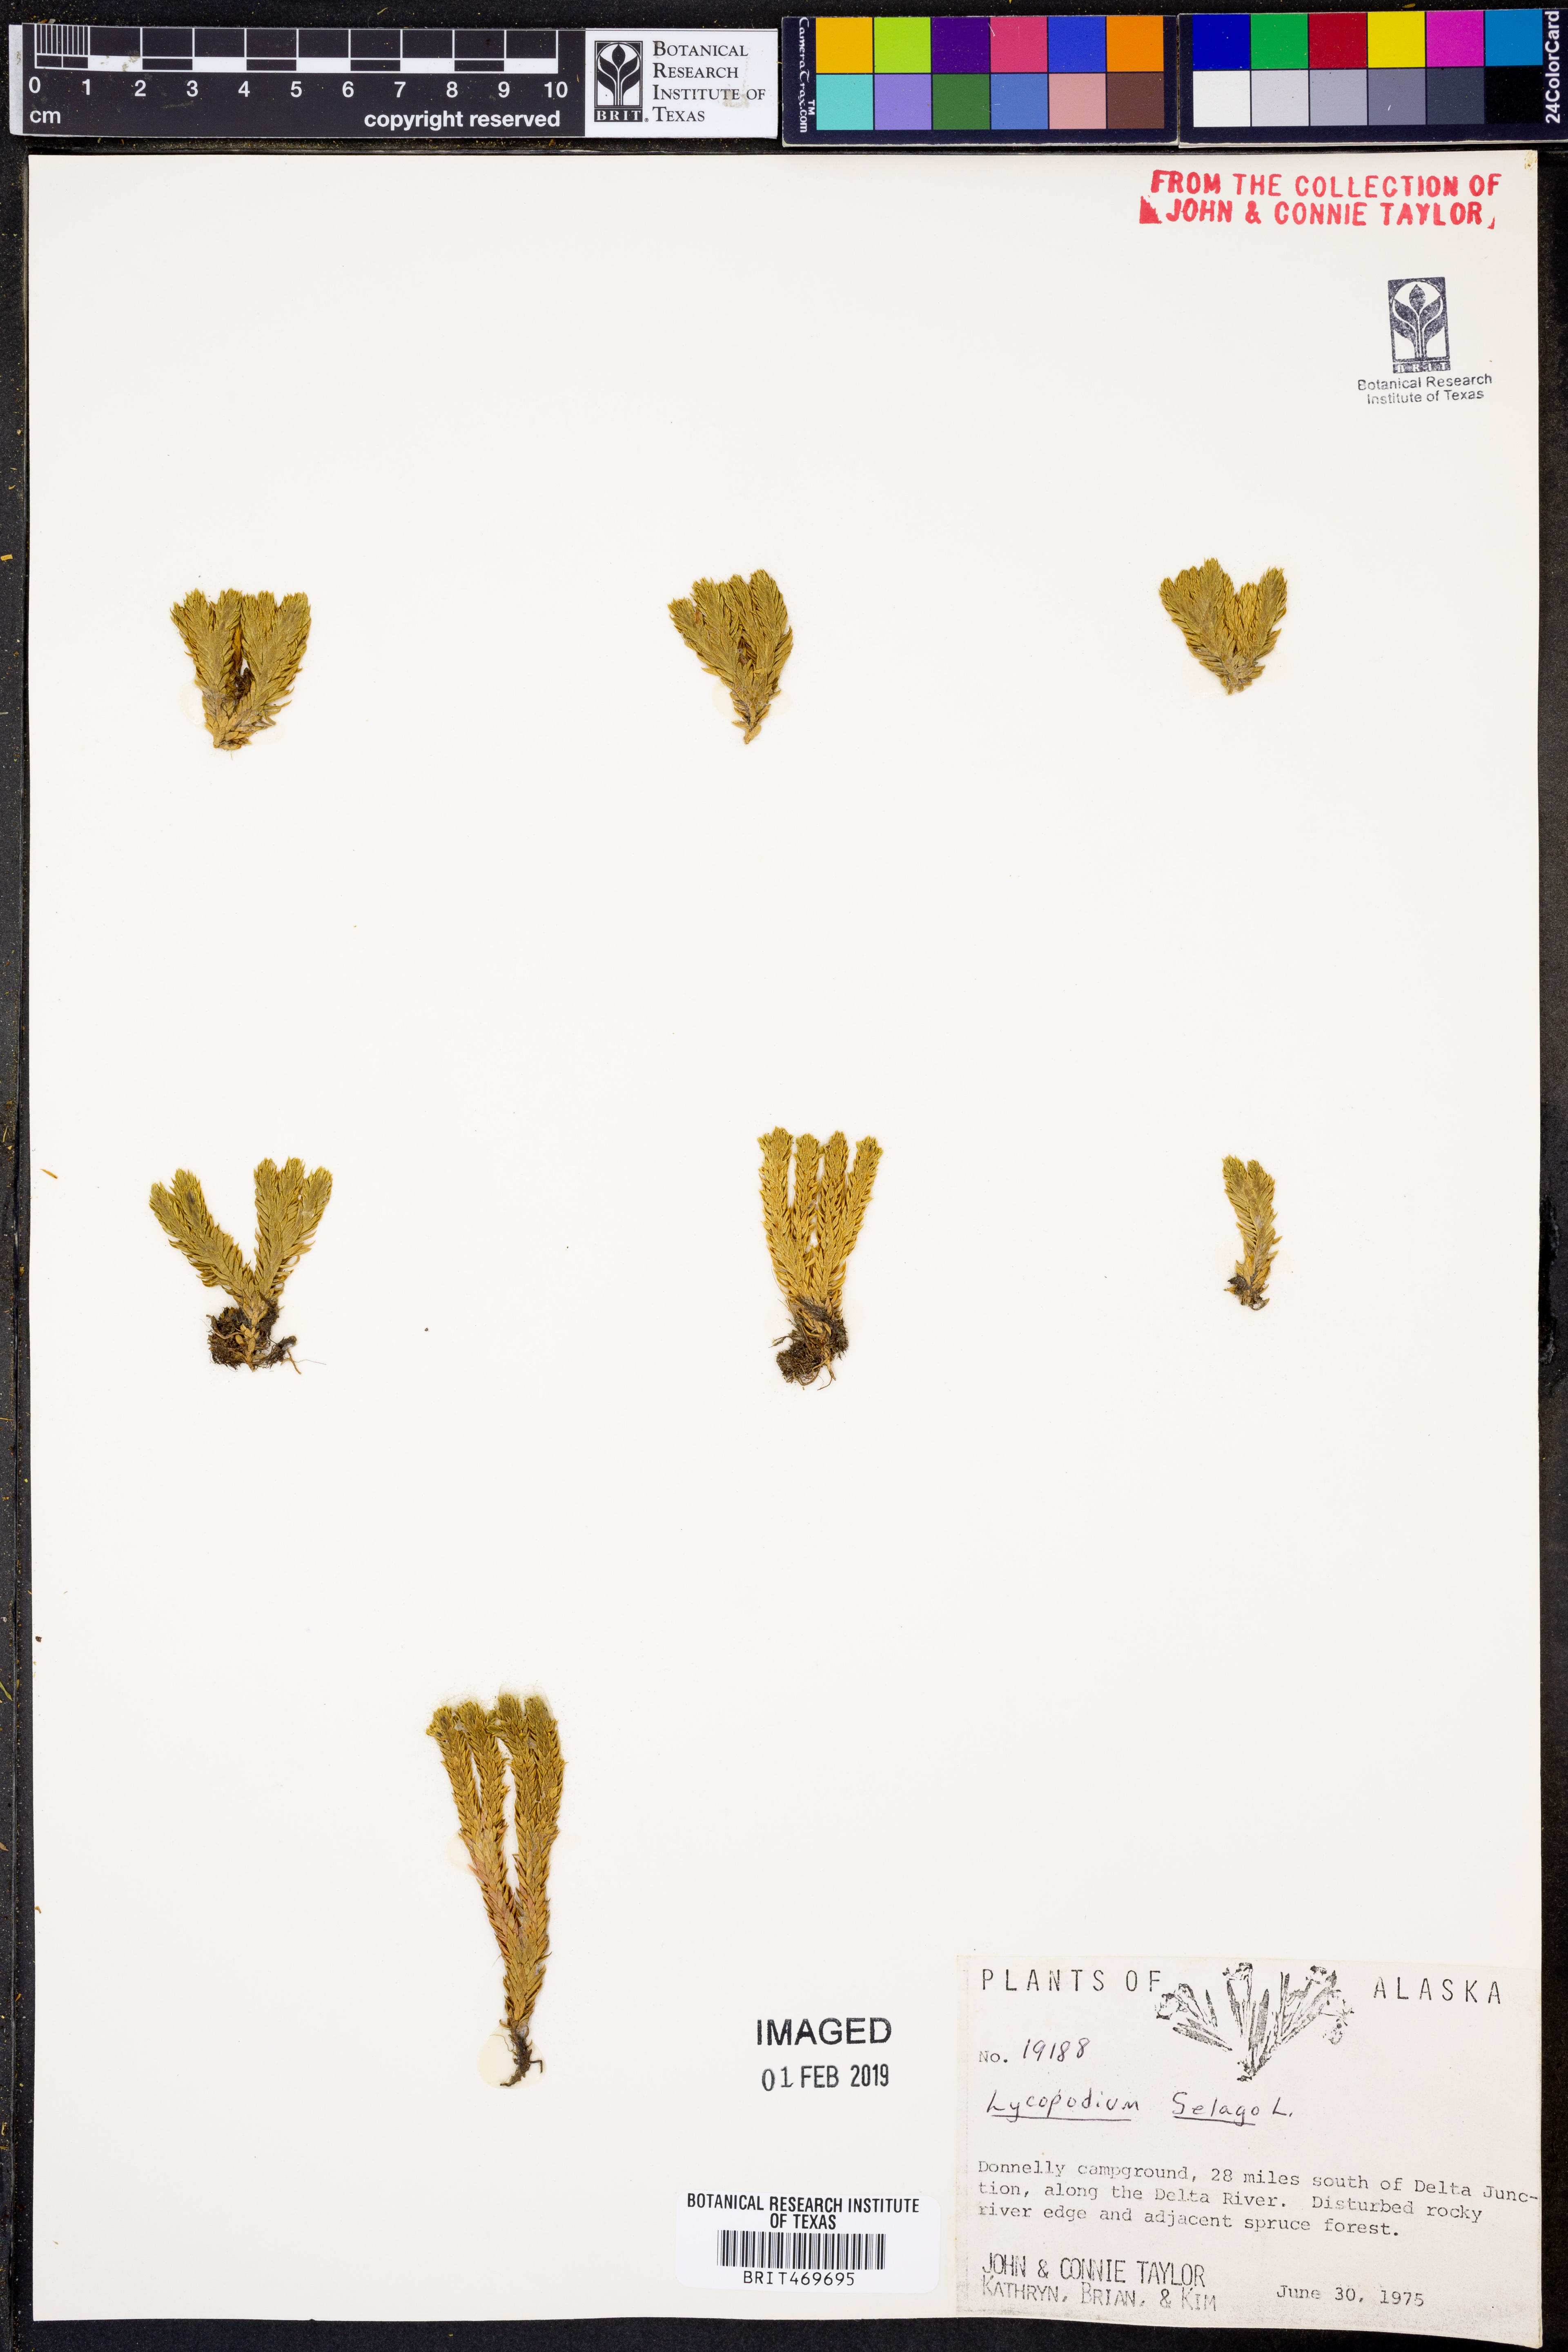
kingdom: Plantae
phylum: Tracheophyta
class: Lycopodiopsida
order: Lycopodiales
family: Lycopodiaceae
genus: Huperzia
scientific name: Huperzia selago
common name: Northern firmoss
